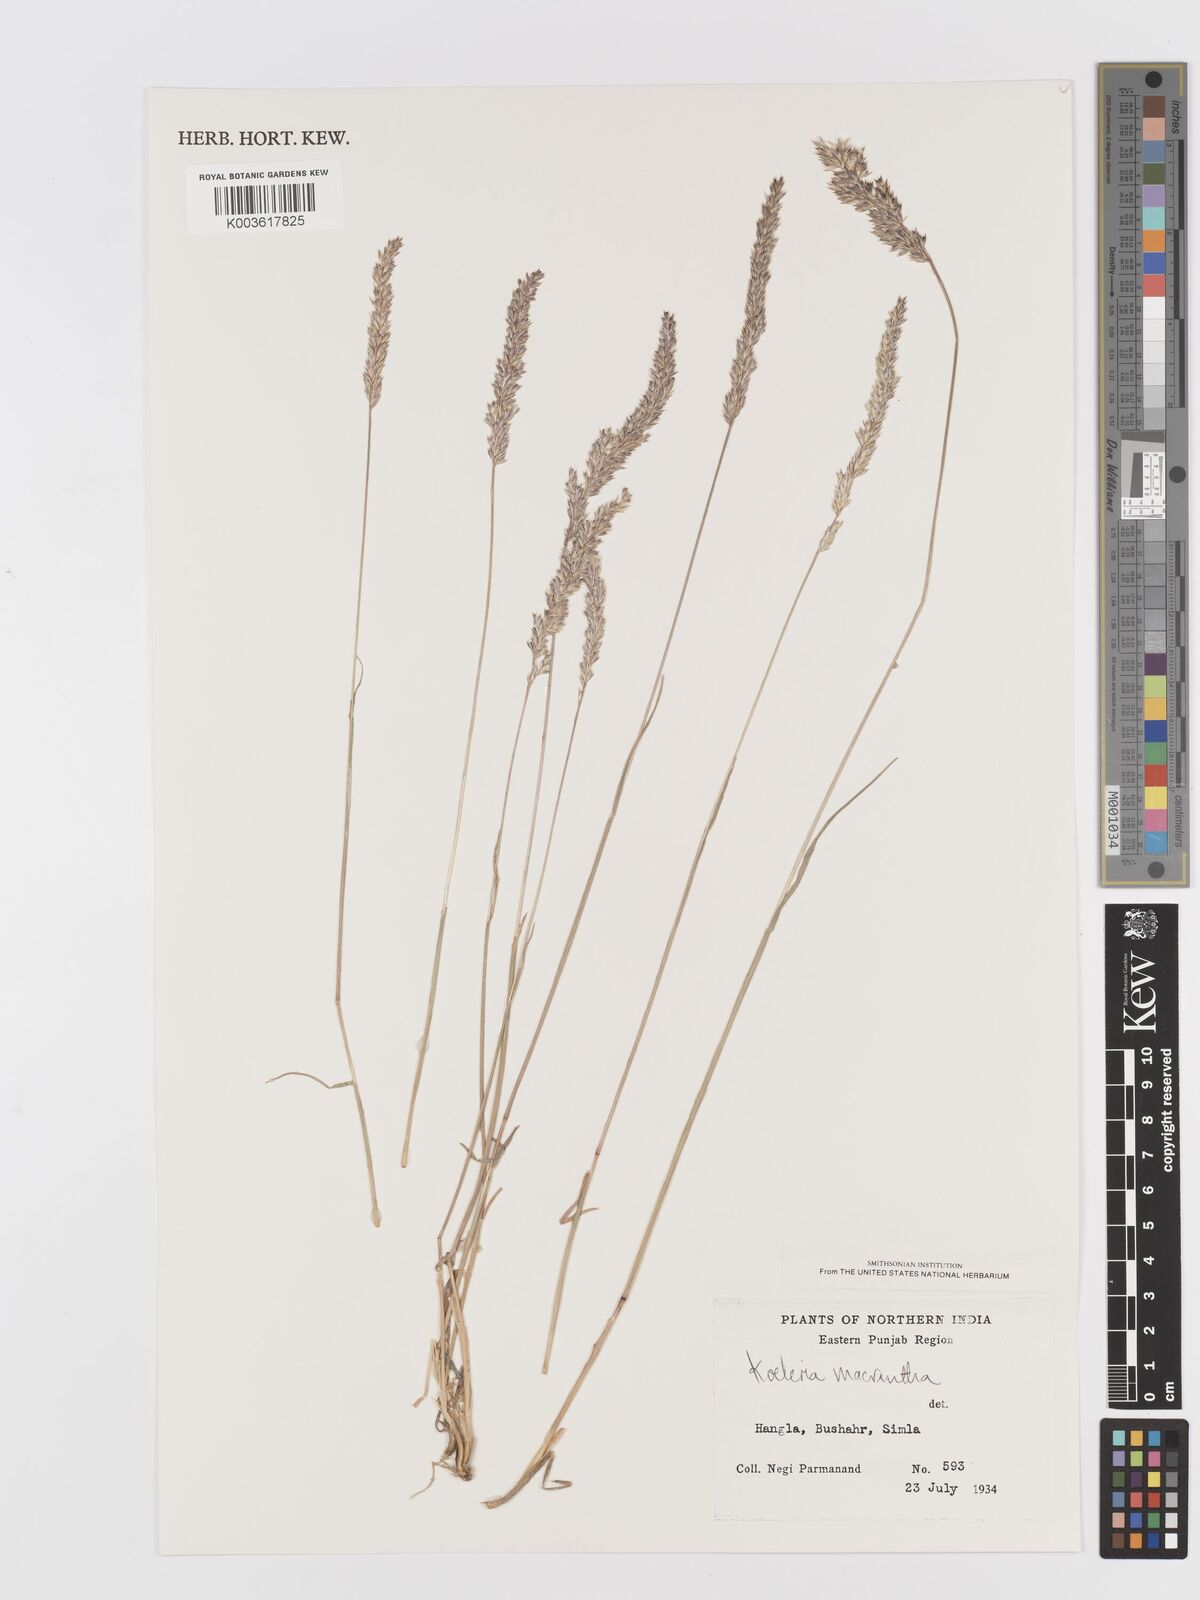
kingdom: Plantae
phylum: Tracheophyta
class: Liliopsida
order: Poales
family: Poaceae
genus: Koeleria
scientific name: Koeleria macrantha
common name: Crested hair-grass
